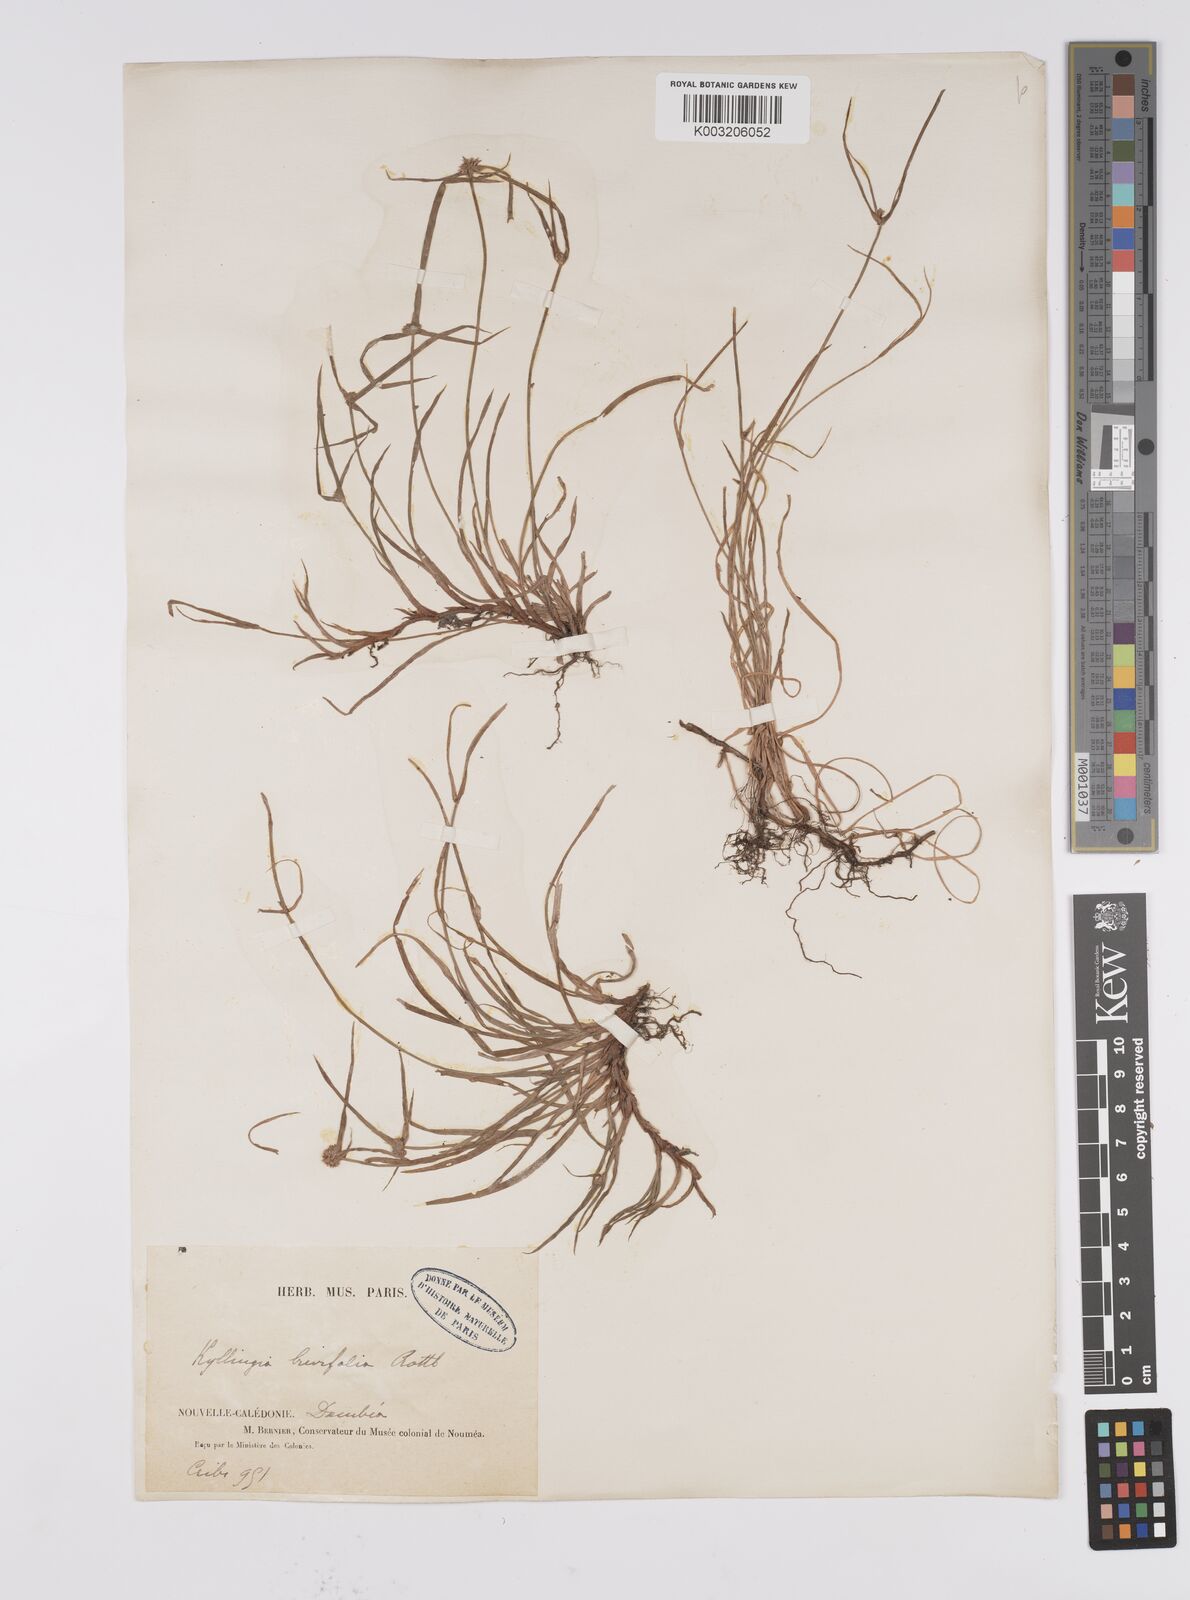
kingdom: Plantae
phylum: Tracheophyta
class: Liliopsida
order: Poales
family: Cyperaceae
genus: Cyperus
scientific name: Cyperus brevifolius
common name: Globe kyllinga
